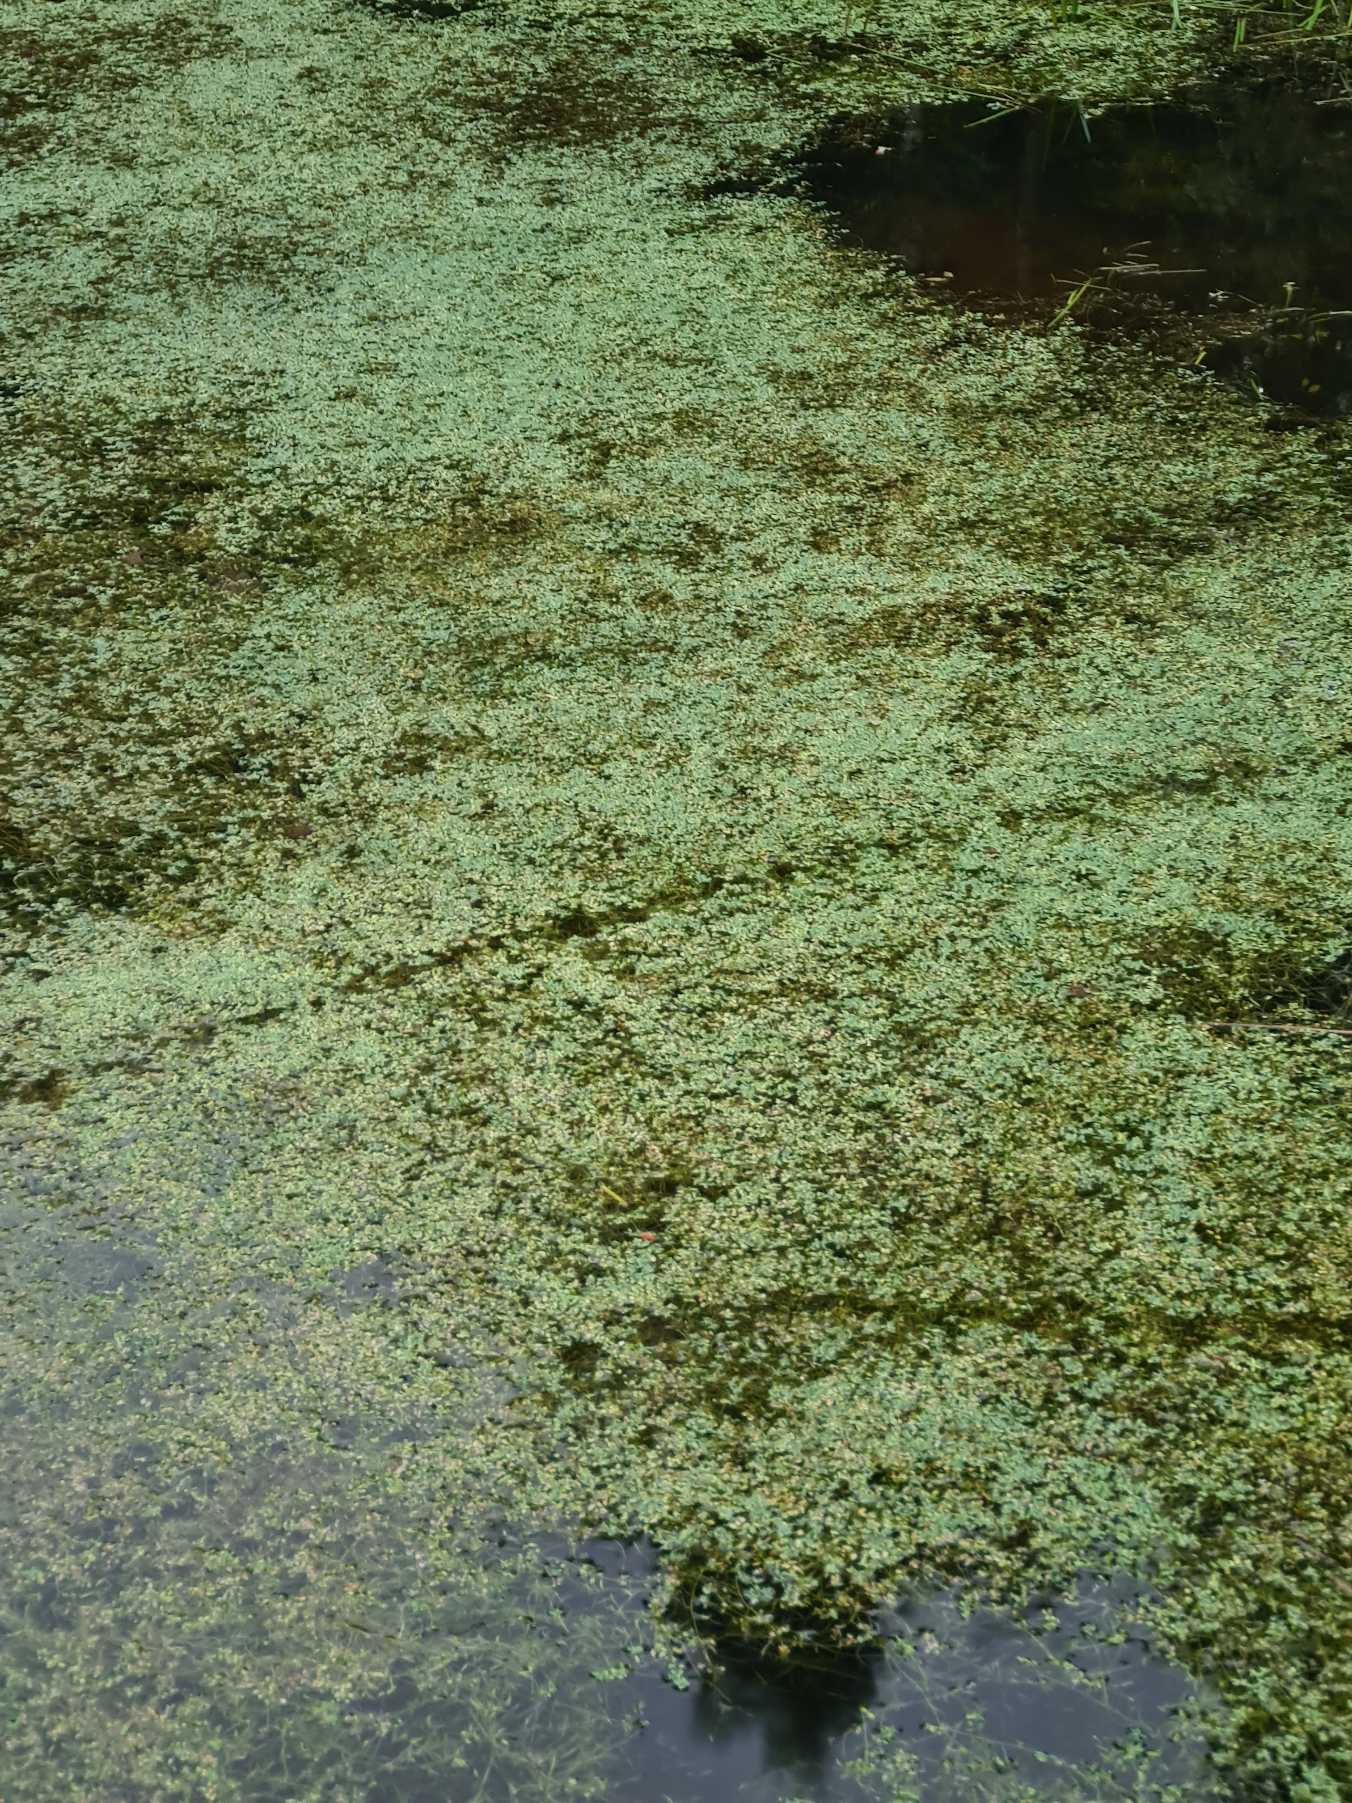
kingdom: Plantae
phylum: Tracheophyta
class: Magnoliopsida
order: Lamiales
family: Plantaginaceae
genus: Callitriche
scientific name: Callitriche
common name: Vandstjerneslægten
